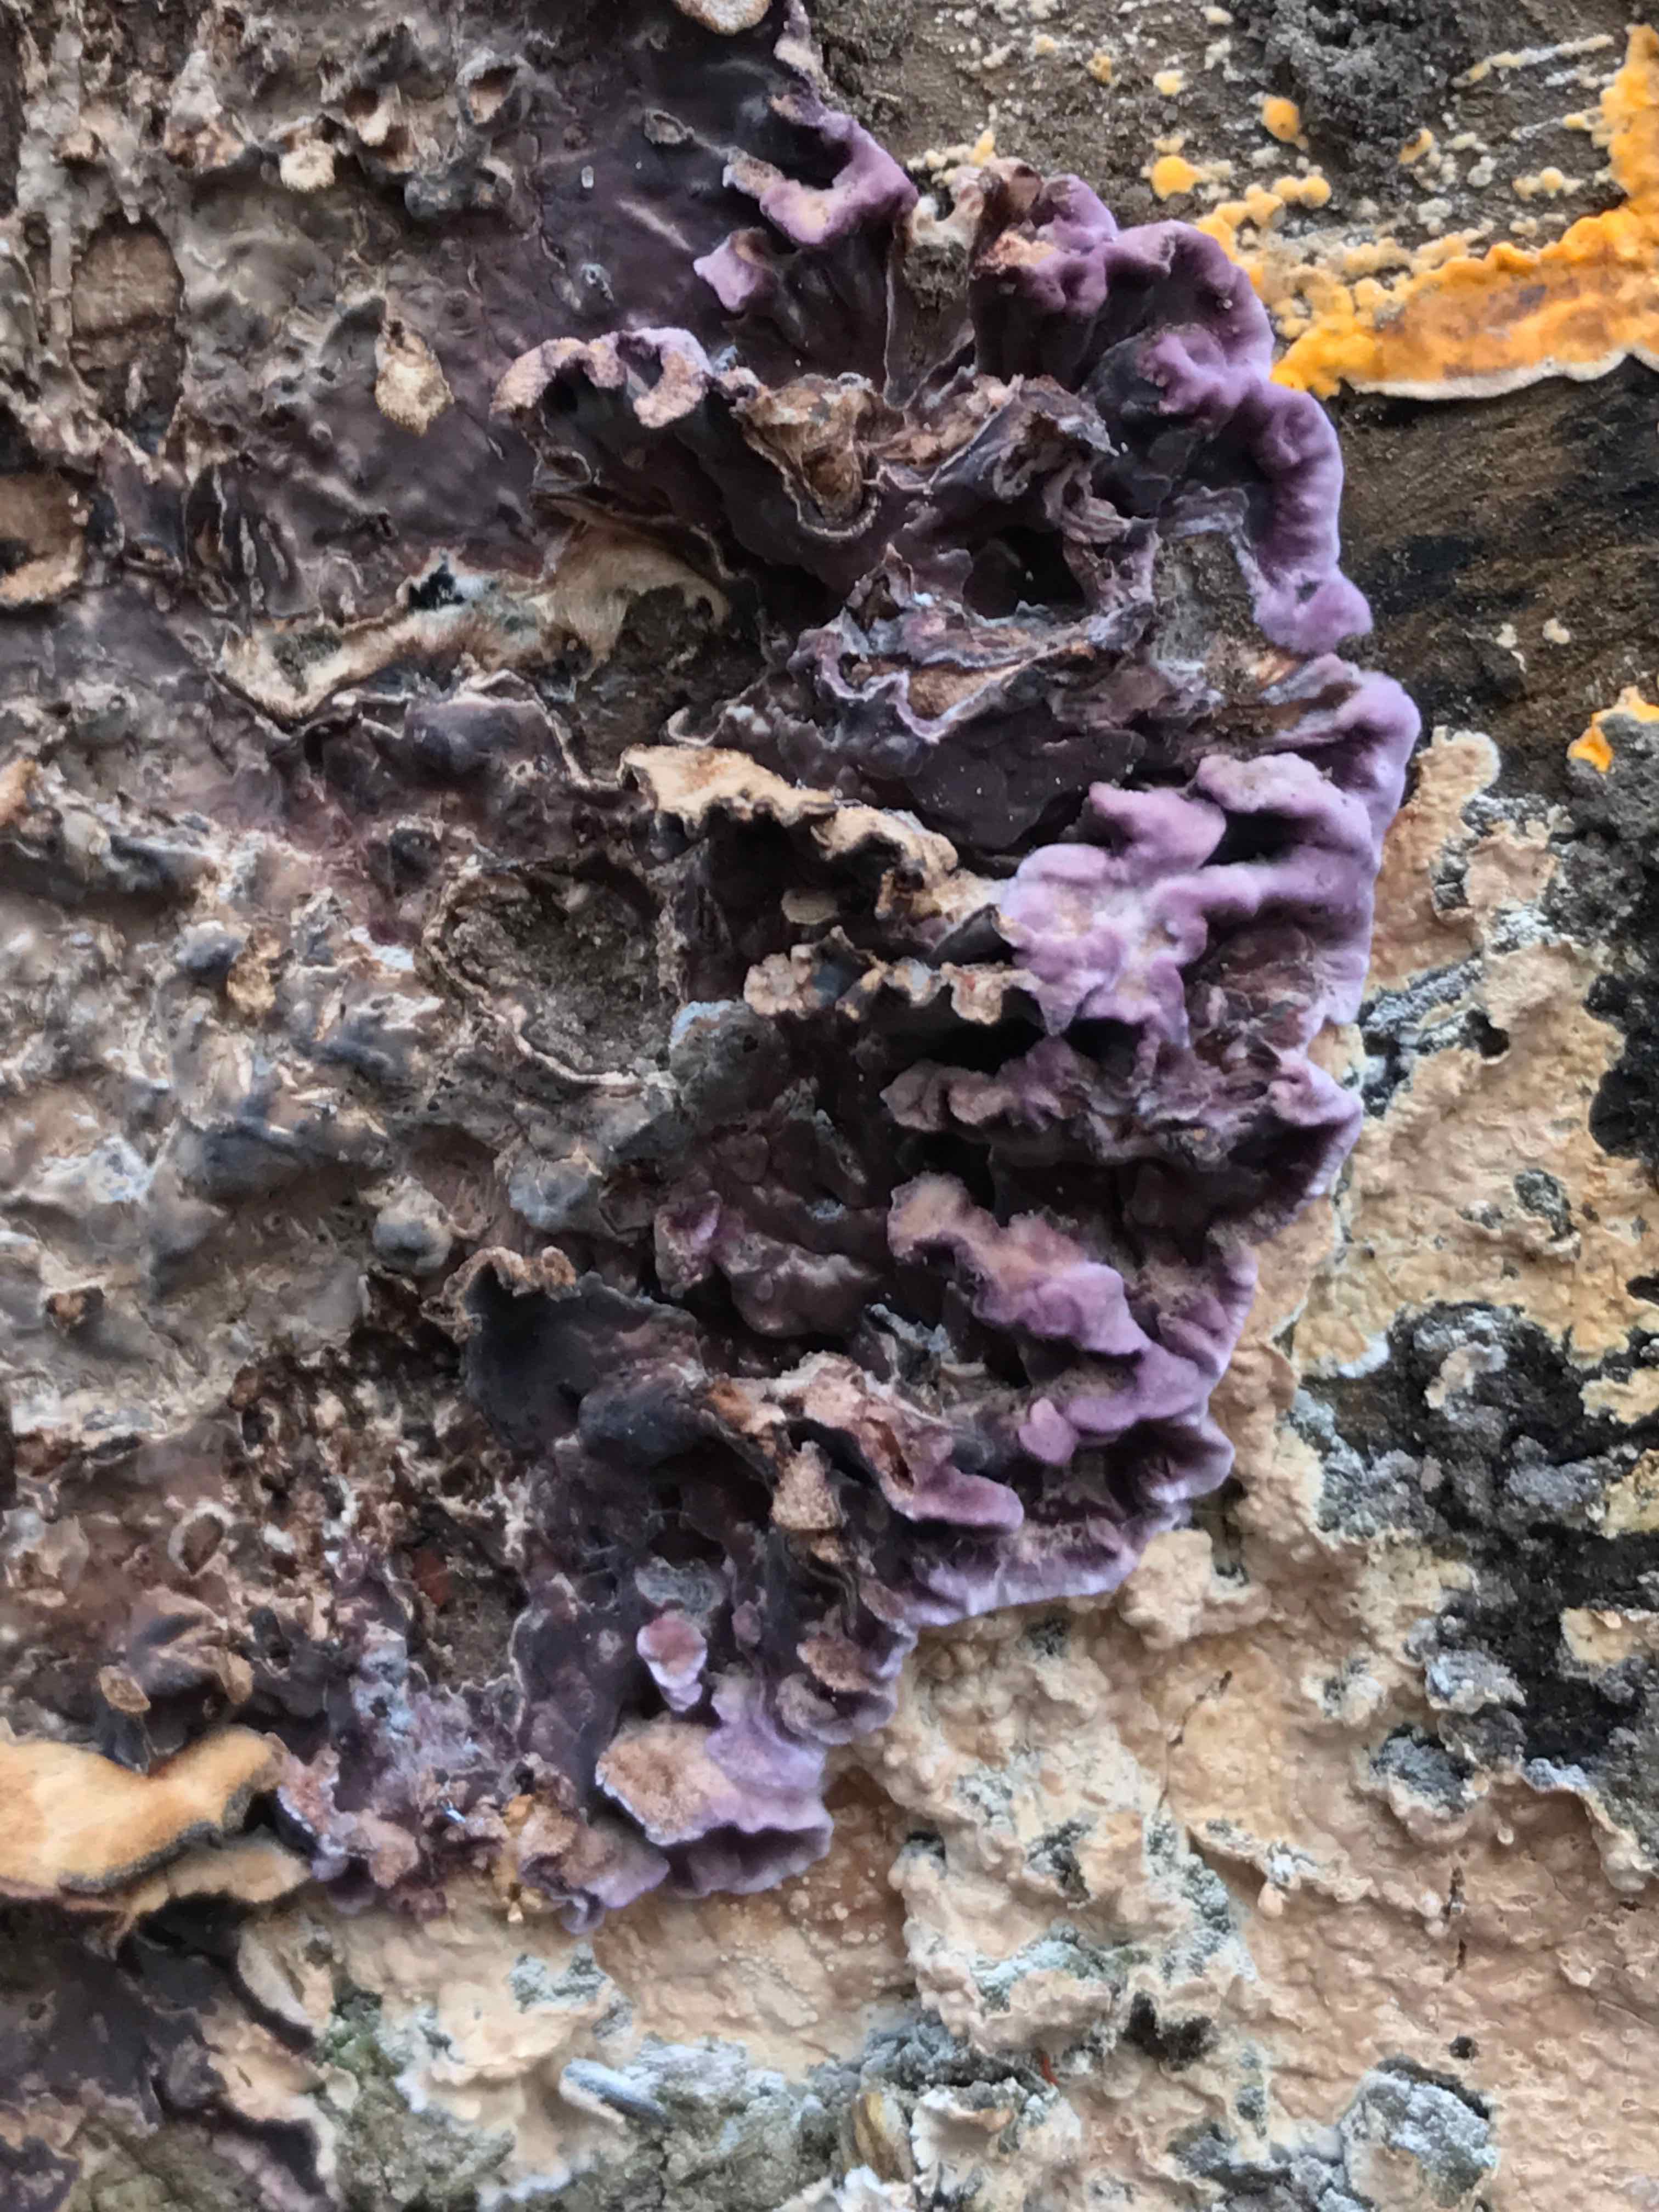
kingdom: Fungi
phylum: Basidiomycota
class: Agaricomycetes
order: Agaricales
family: Cyphellaceae
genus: Chondrostereum
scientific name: Chondrostereum purpureum
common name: purpurlædersvamp
